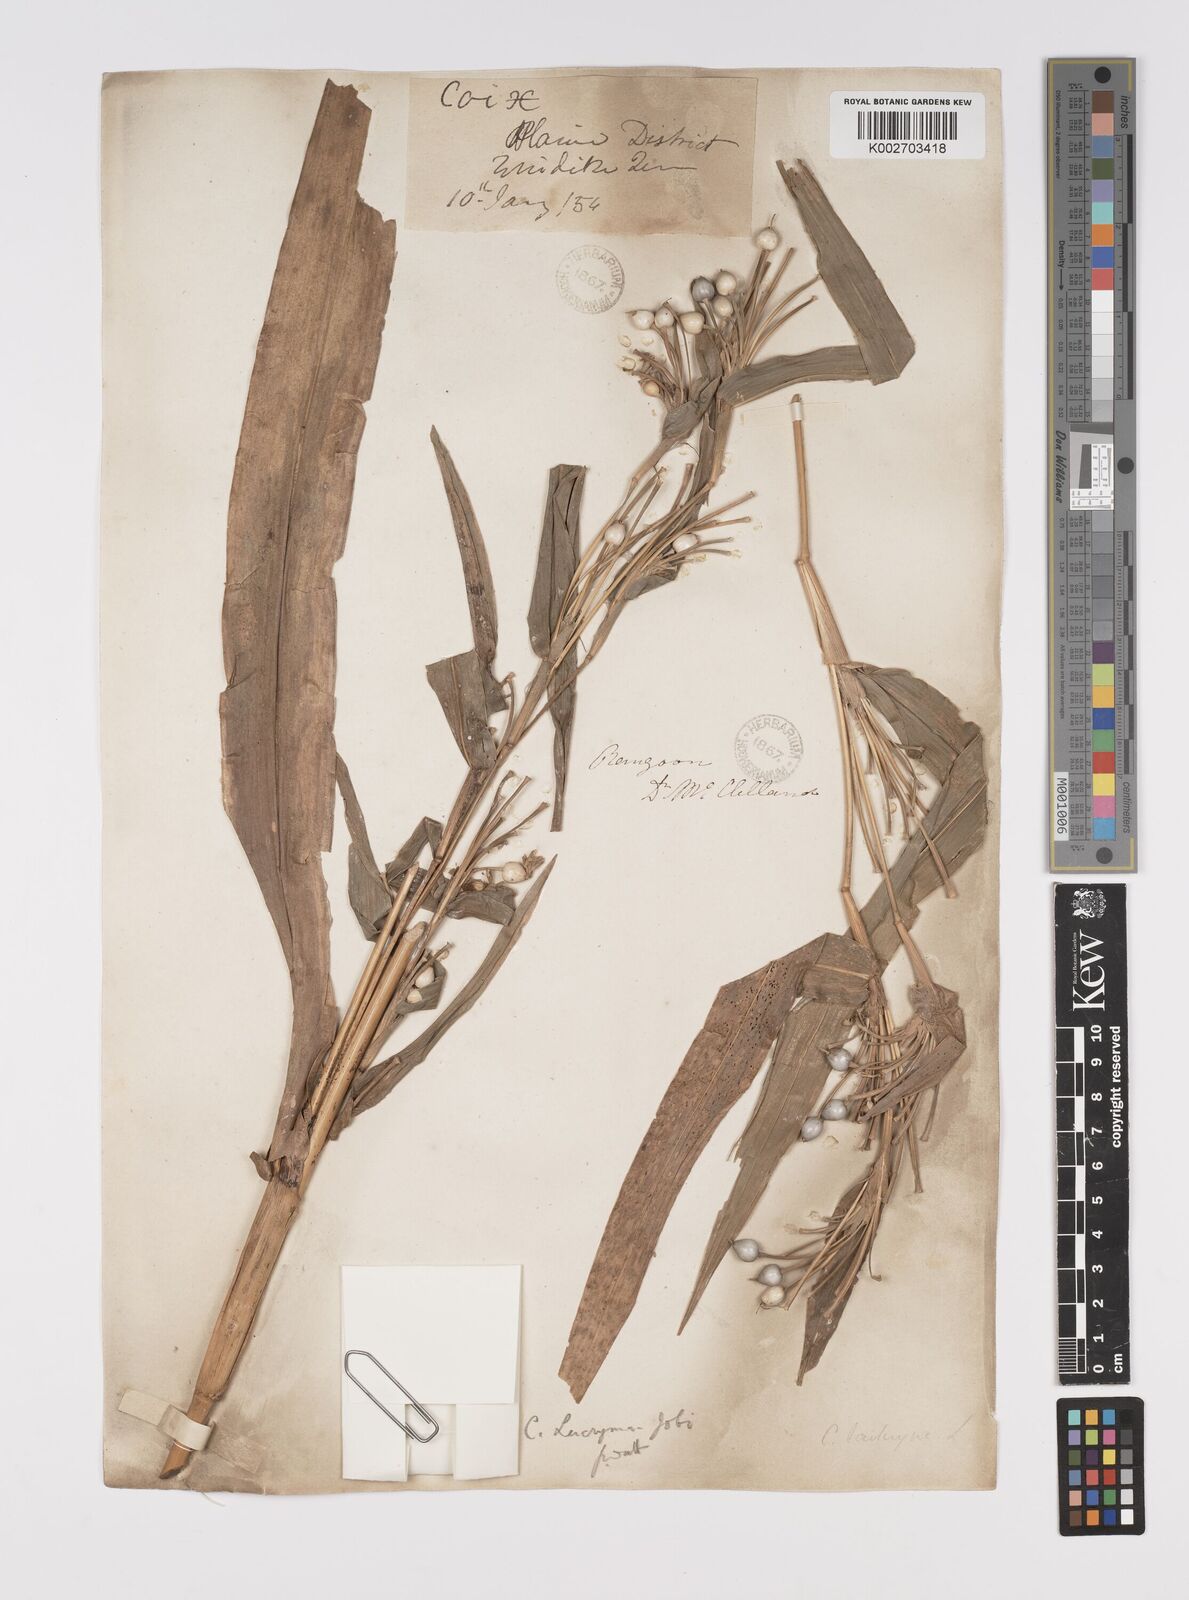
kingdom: Plantae
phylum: Tracheophyta
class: Liliopsida
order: Poales
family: Poaceae
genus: Coix
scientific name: Coix lacryma-jobi
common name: Job's tears
